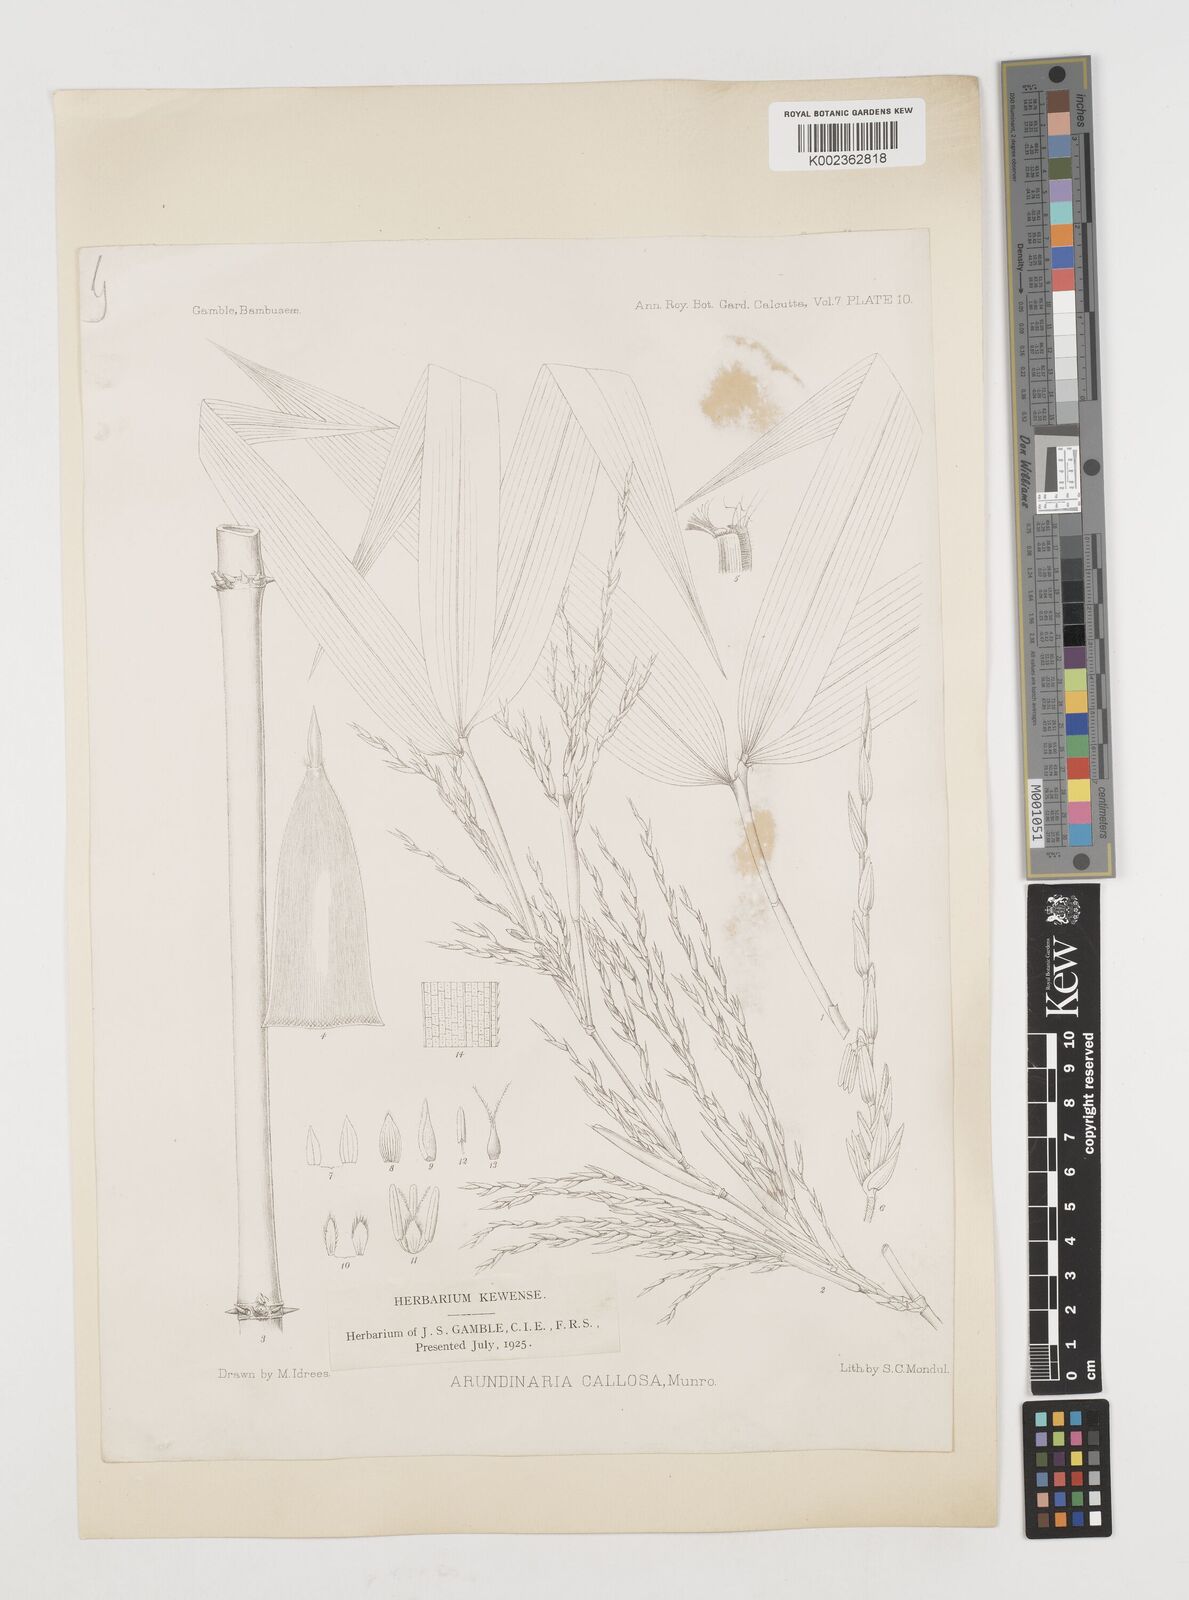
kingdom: Plantae
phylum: Tracheophyta
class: Liliopsida
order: Poales
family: Poaceae
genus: Chimonobambusa
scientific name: Chimonobambusa callosa
